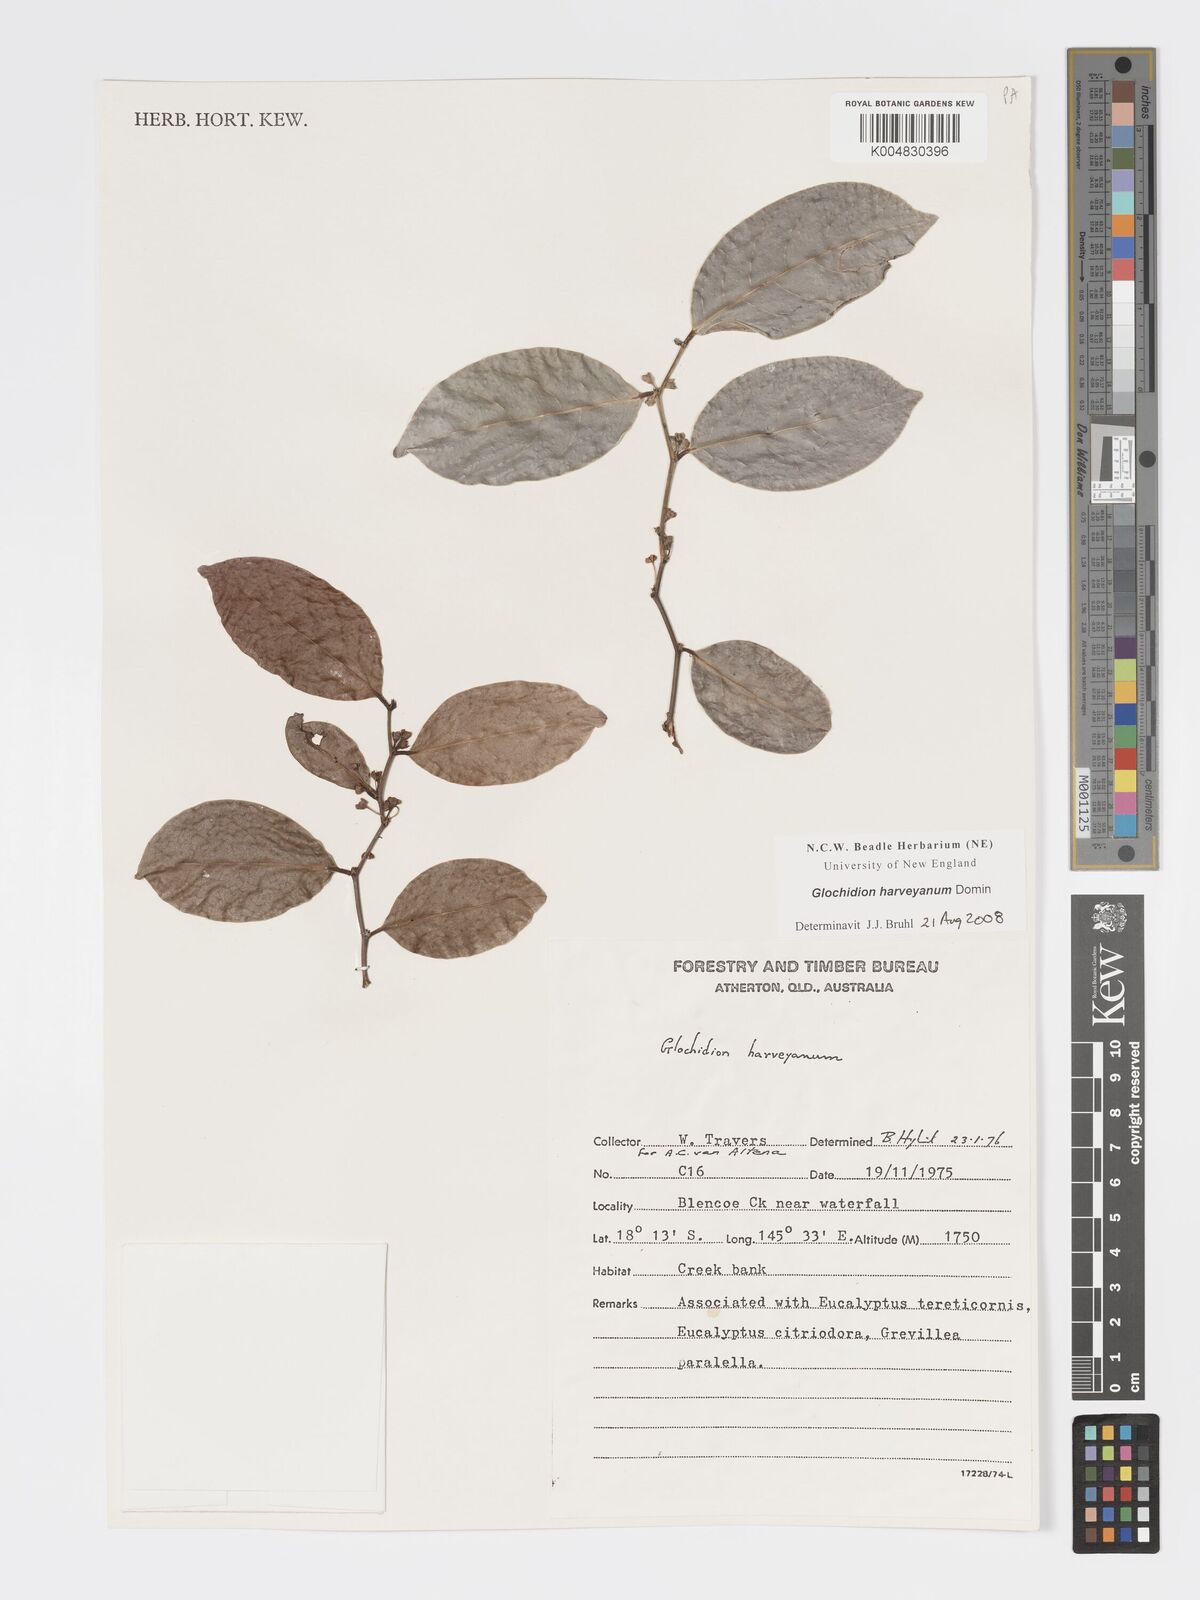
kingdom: Plantae
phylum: Tracheophyta
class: Magnoliopsida
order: Malpighiales
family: Phyllanthaceae
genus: Glochidion
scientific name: Glochidion harveyanum
